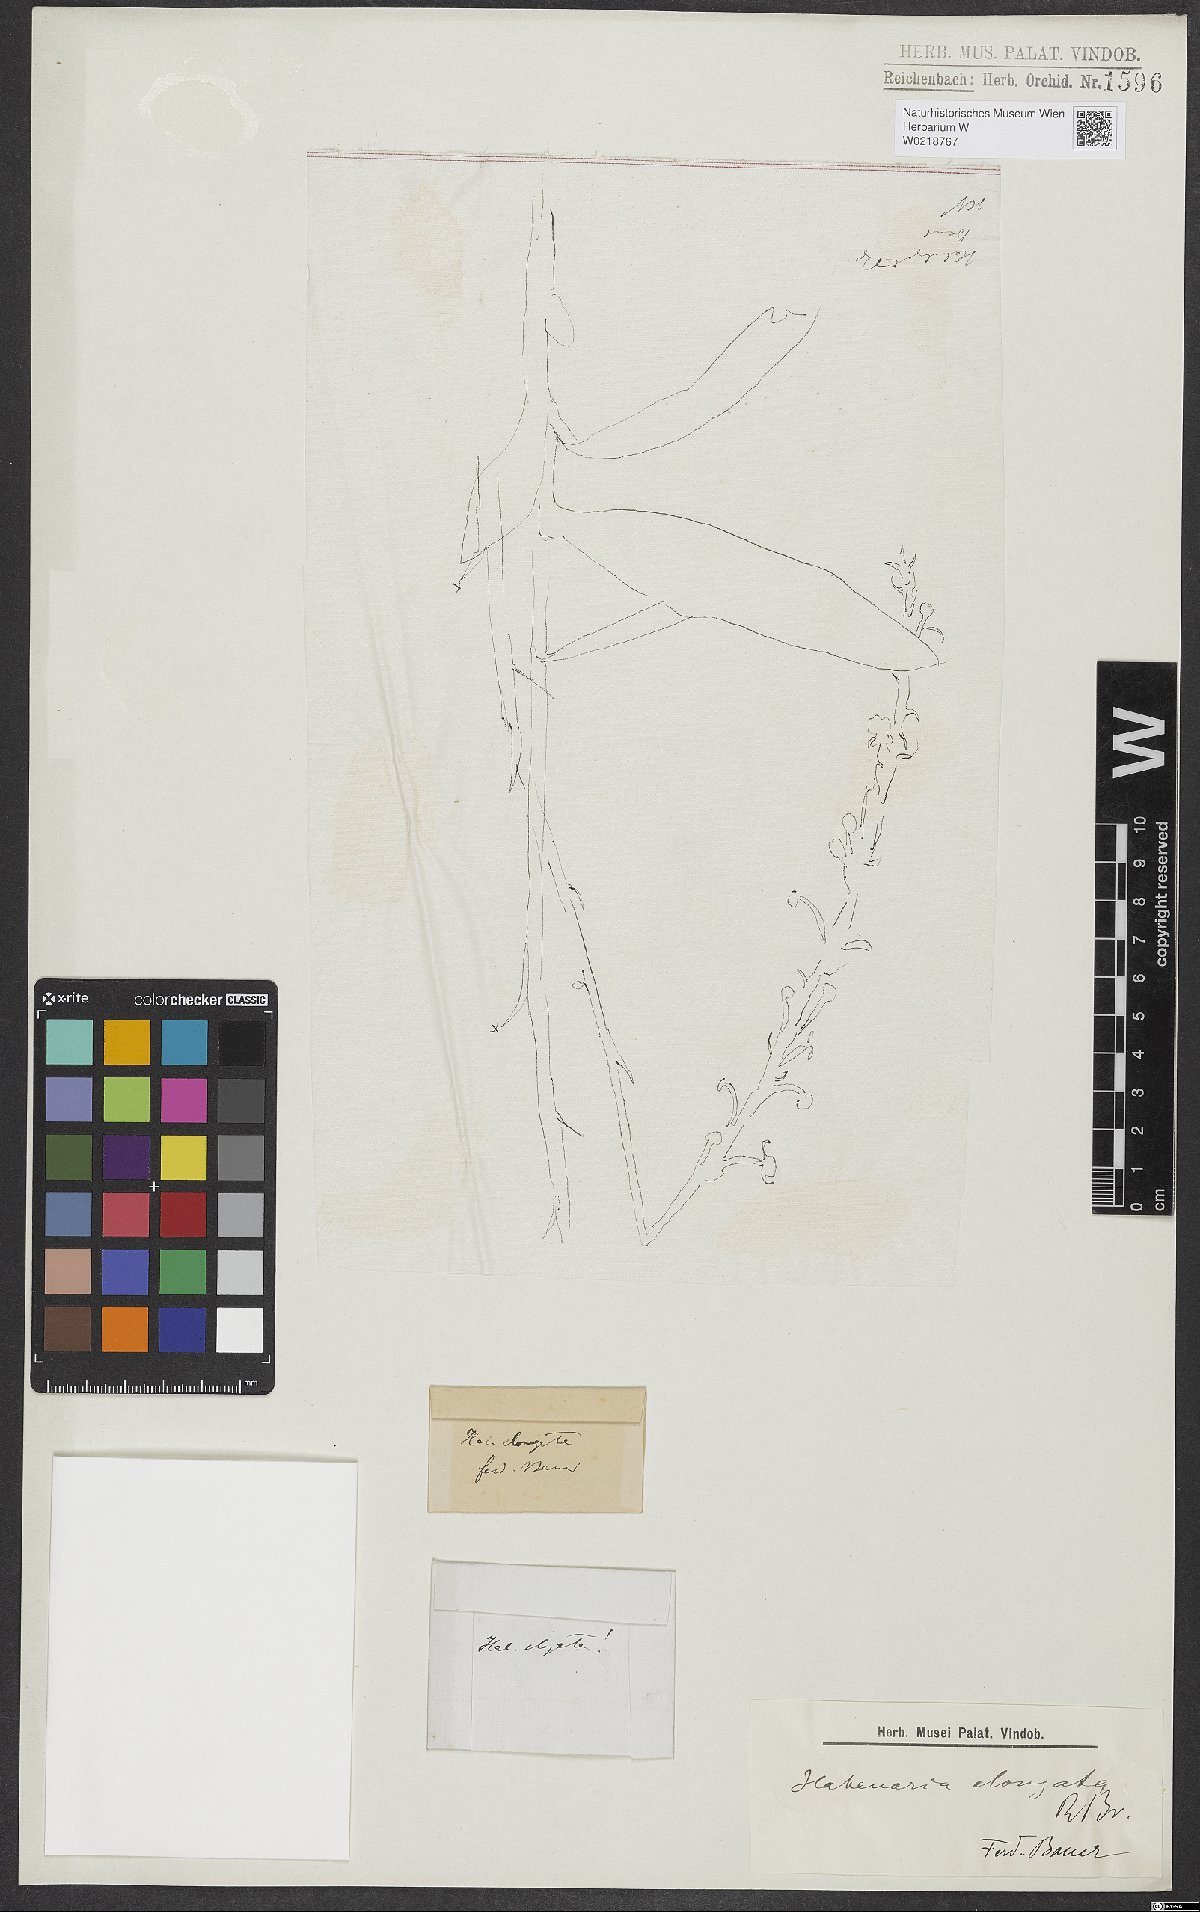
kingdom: Plantae
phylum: Tracheophyta
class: Liliopsida
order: Asparagales
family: Orchidaceae
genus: Habenaria
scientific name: Habenaria elongata
